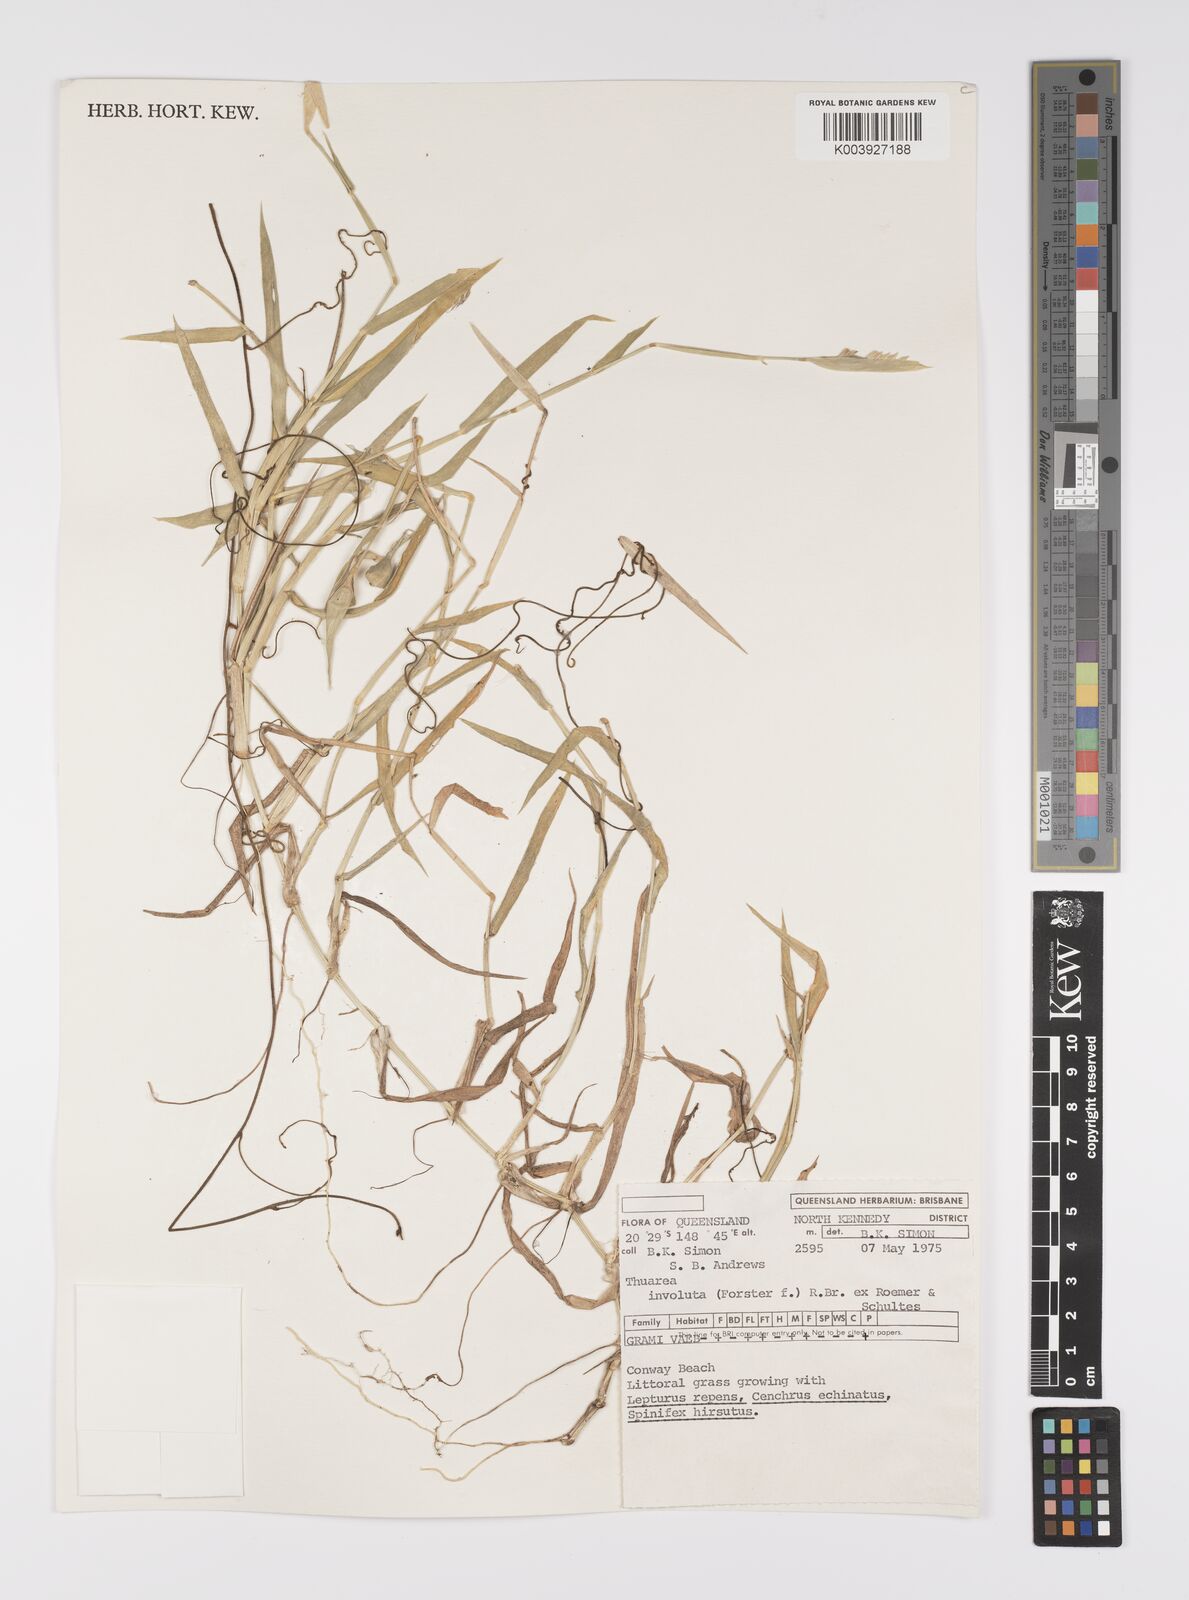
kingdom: Plantae
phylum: Tracheophyta
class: Liliopsida
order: Poales
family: Poaceae
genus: Thuarea
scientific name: Thuarea involuta
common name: Tropical beach grass
